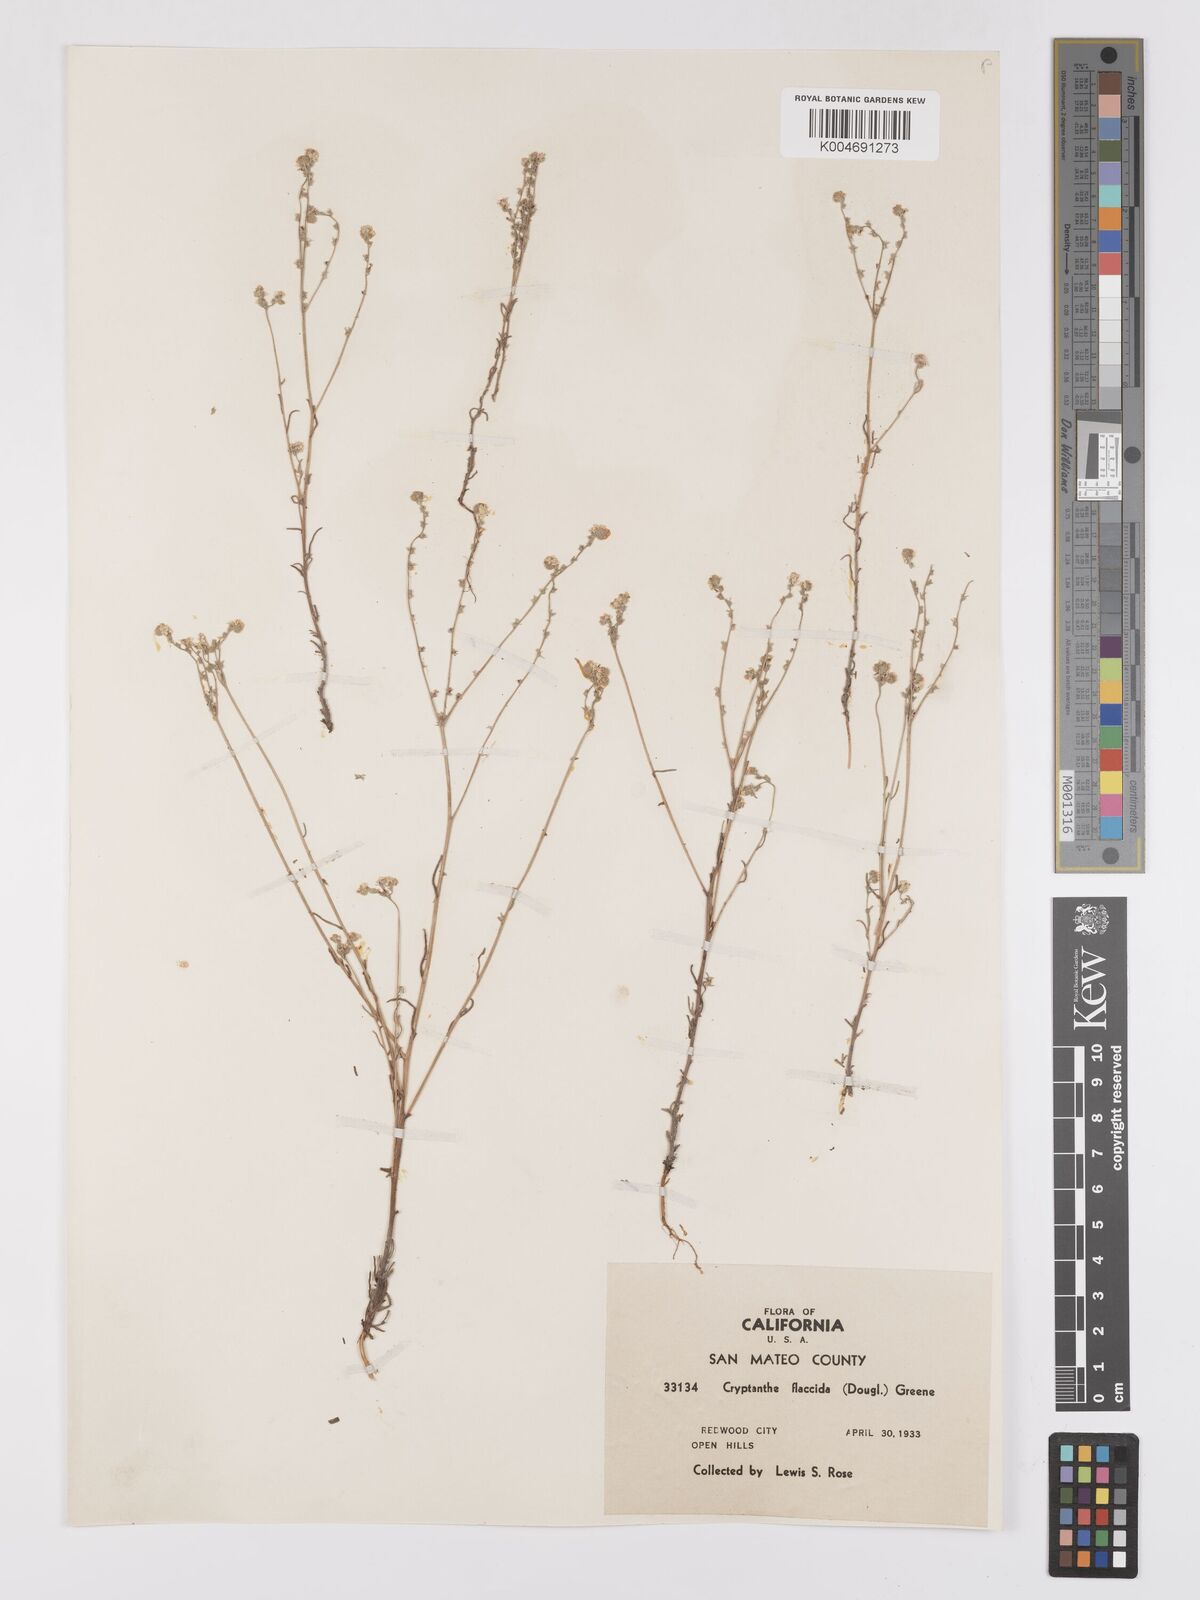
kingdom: Plantae
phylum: Tracheophyta
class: Magnoliopsida
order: Boraginales
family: Boraginaceae
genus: Cryptantha
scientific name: Cryptantha flaccida
